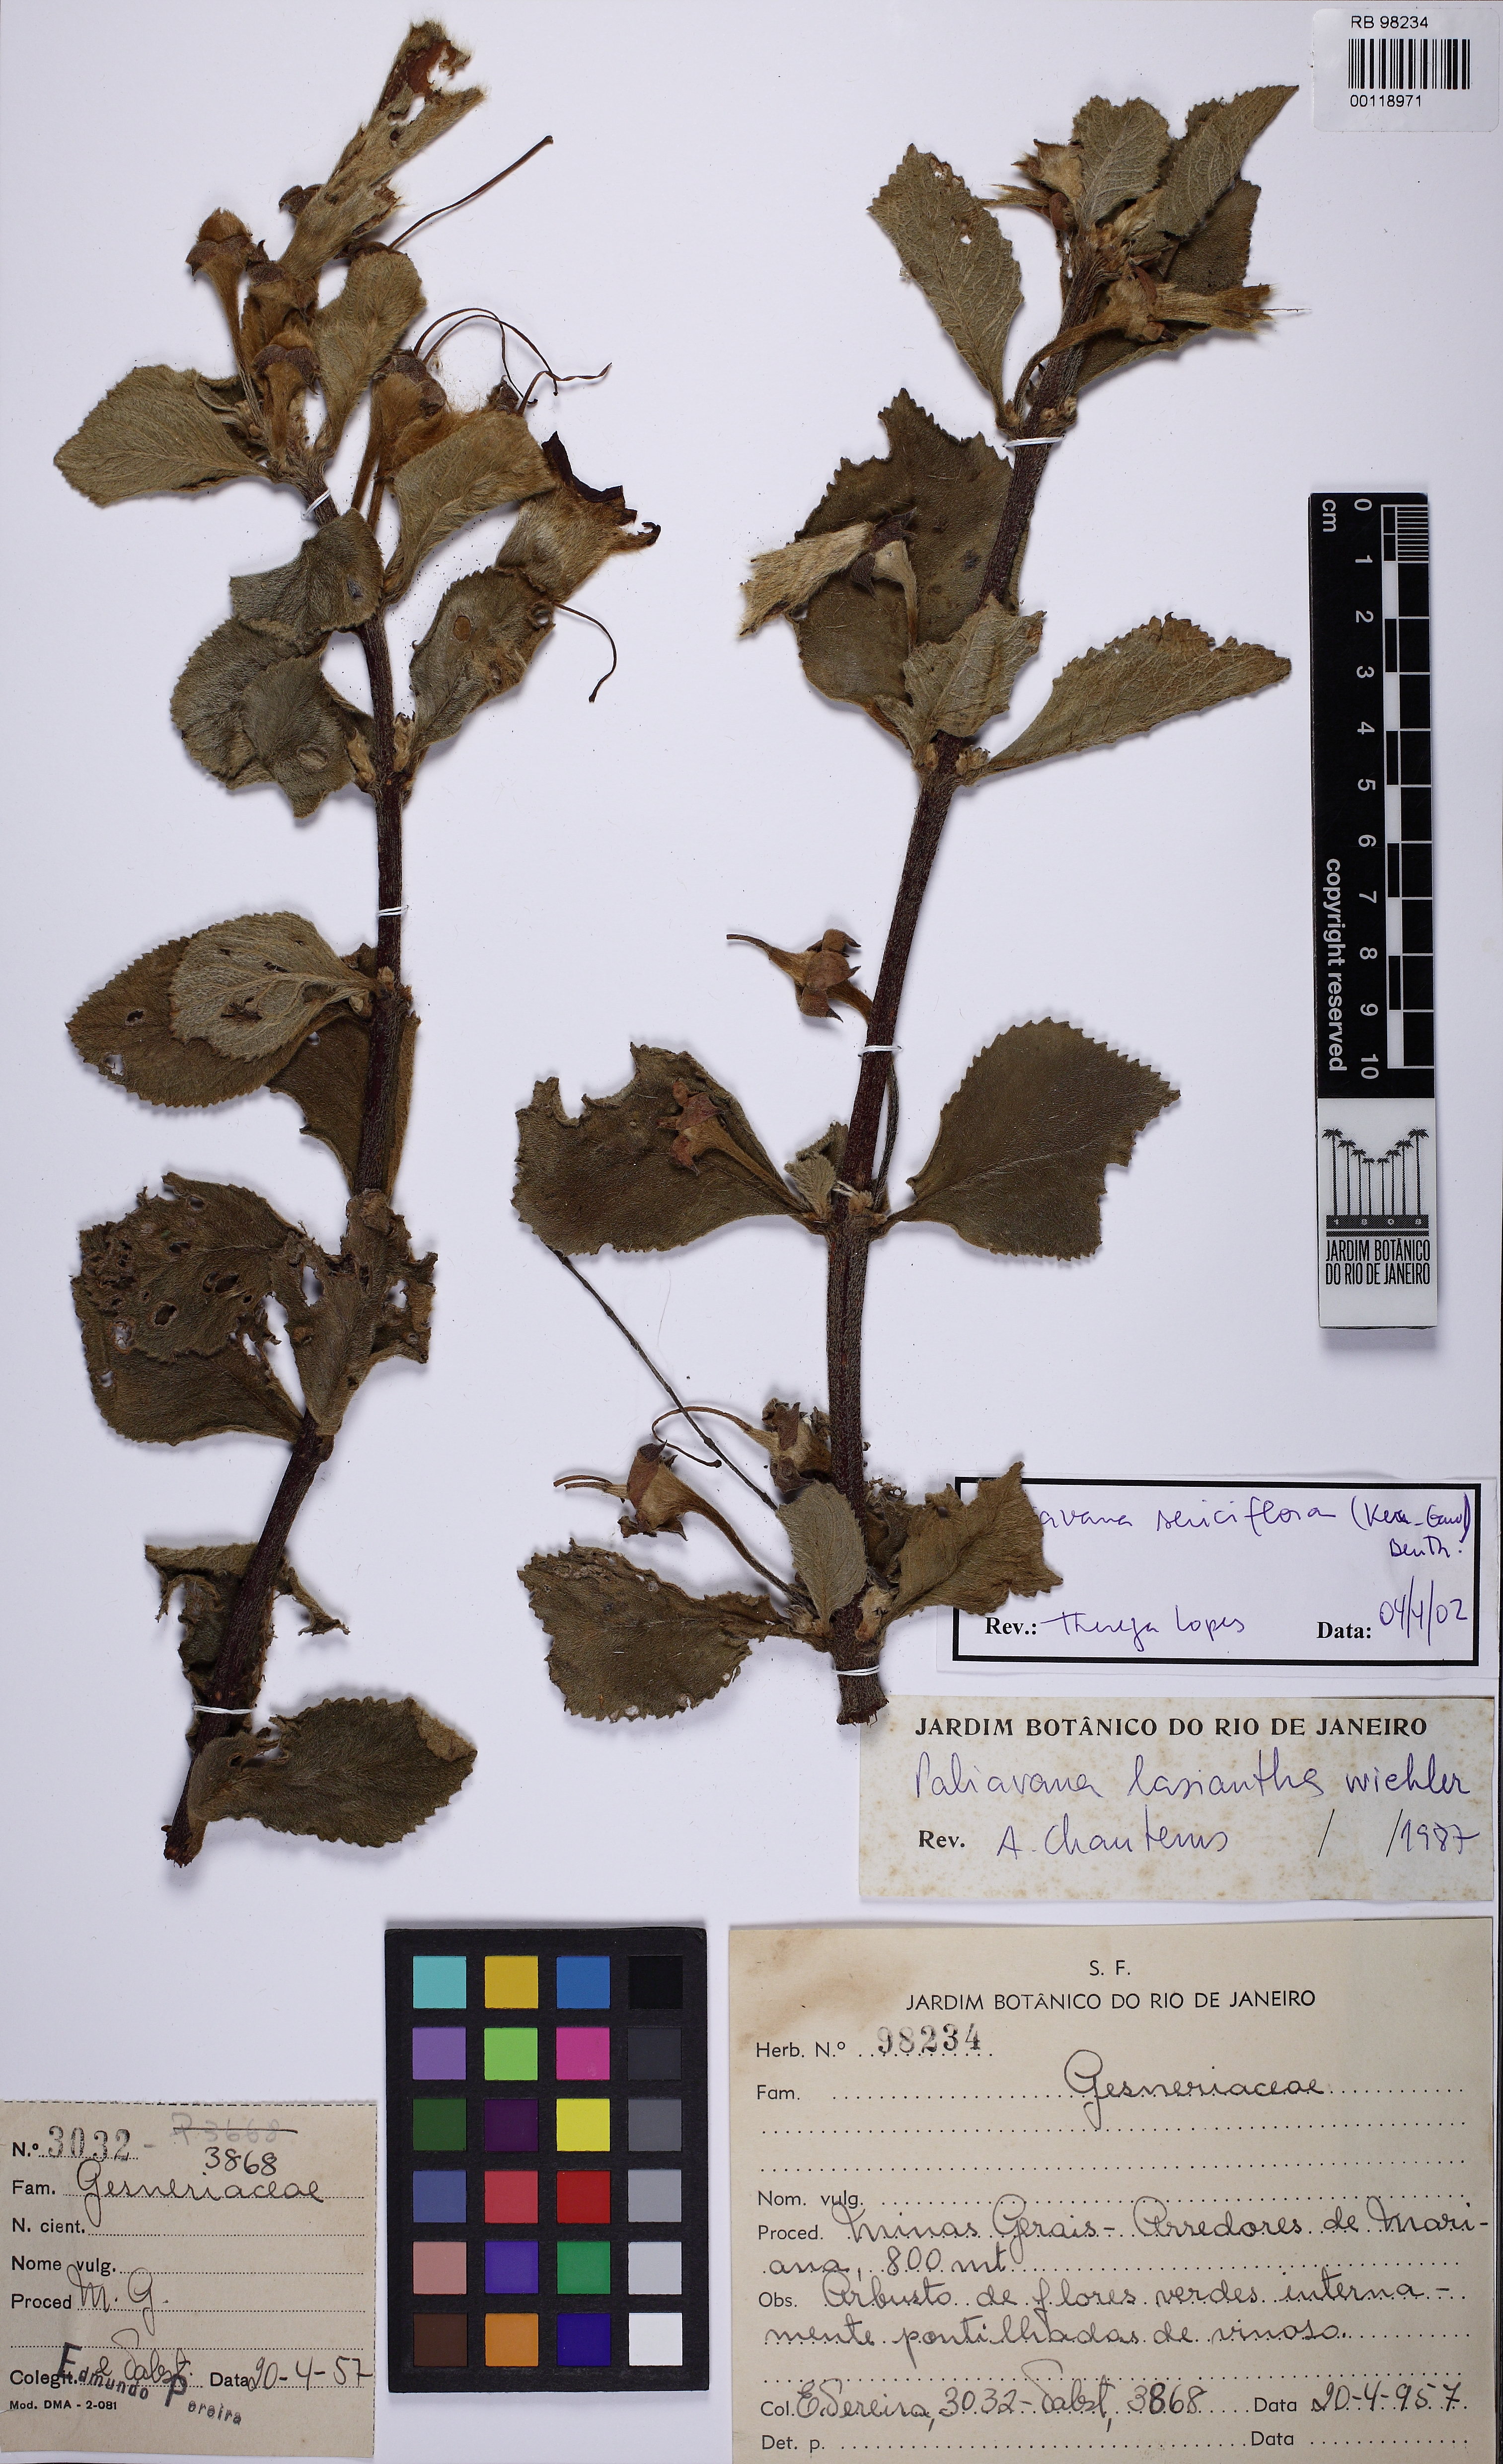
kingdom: Plantae
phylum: Tracheophyta
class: Magnoliopsida
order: Lamiales
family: Gesneriaceae
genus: Paliavana
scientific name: Paliavana sericiflora
